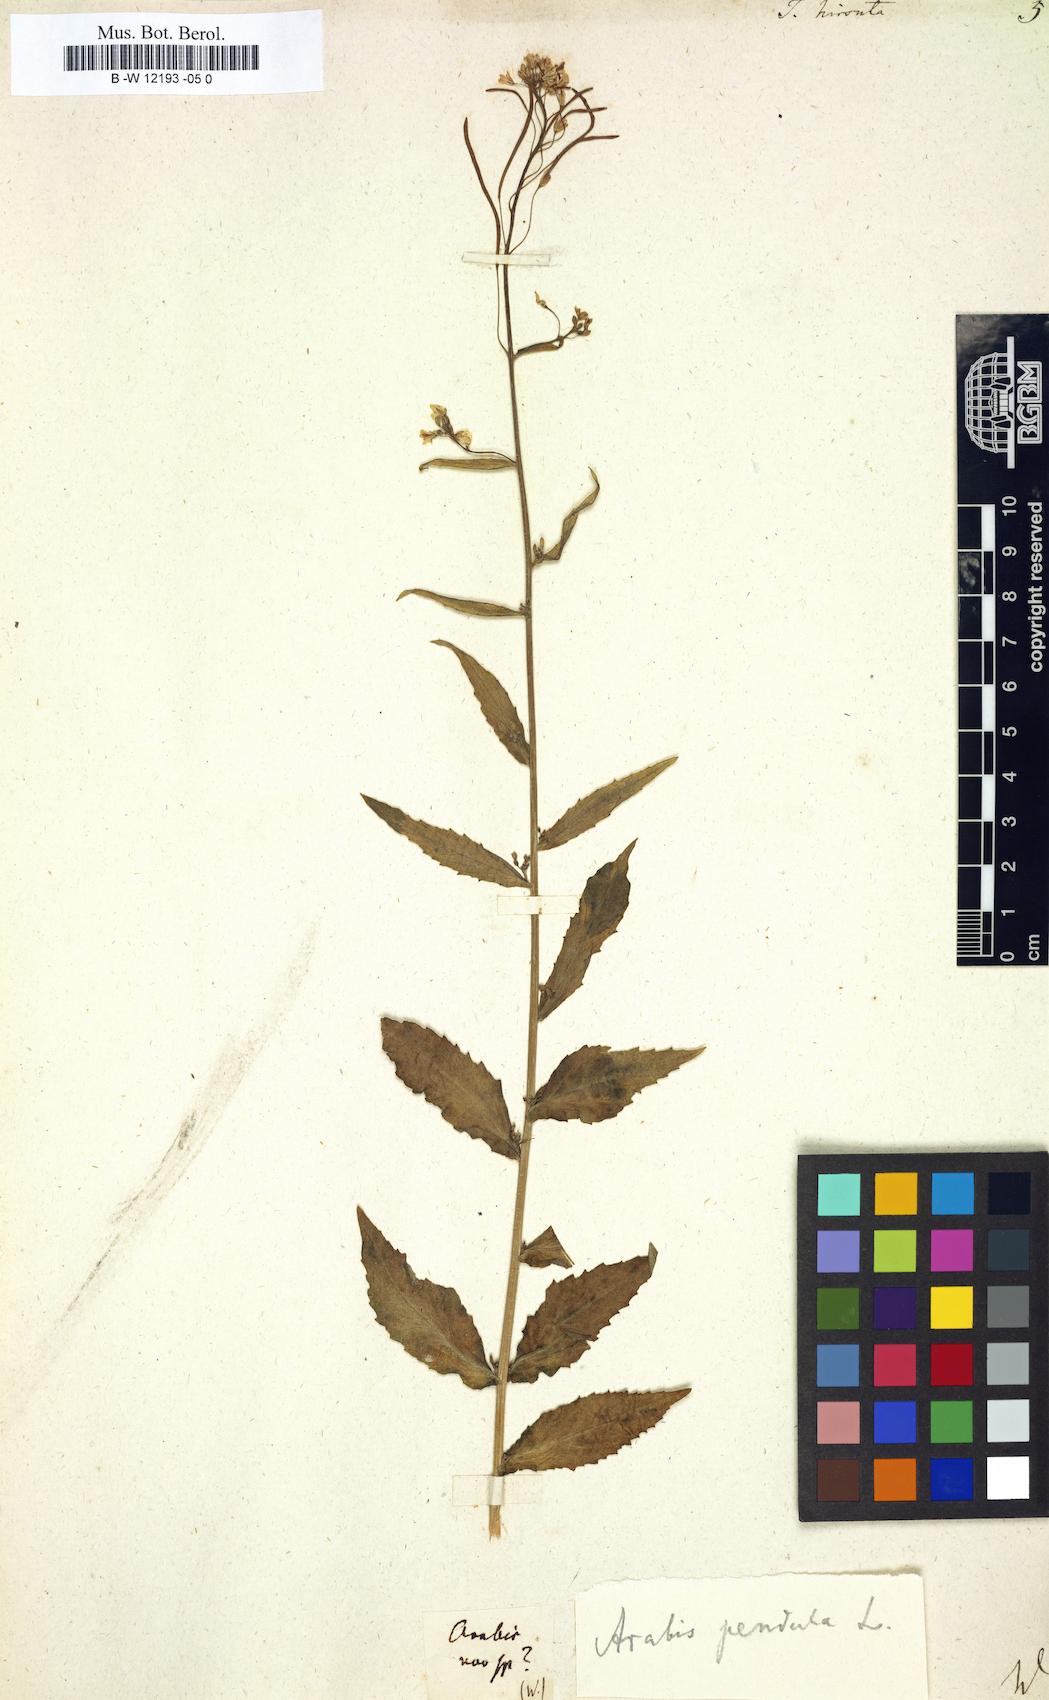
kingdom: Plantae
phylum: Tracheophyta
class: Magnoliopsida
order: Brassicales
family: Brassicaceae
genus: Turritis
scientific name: Turritis hirsuta
